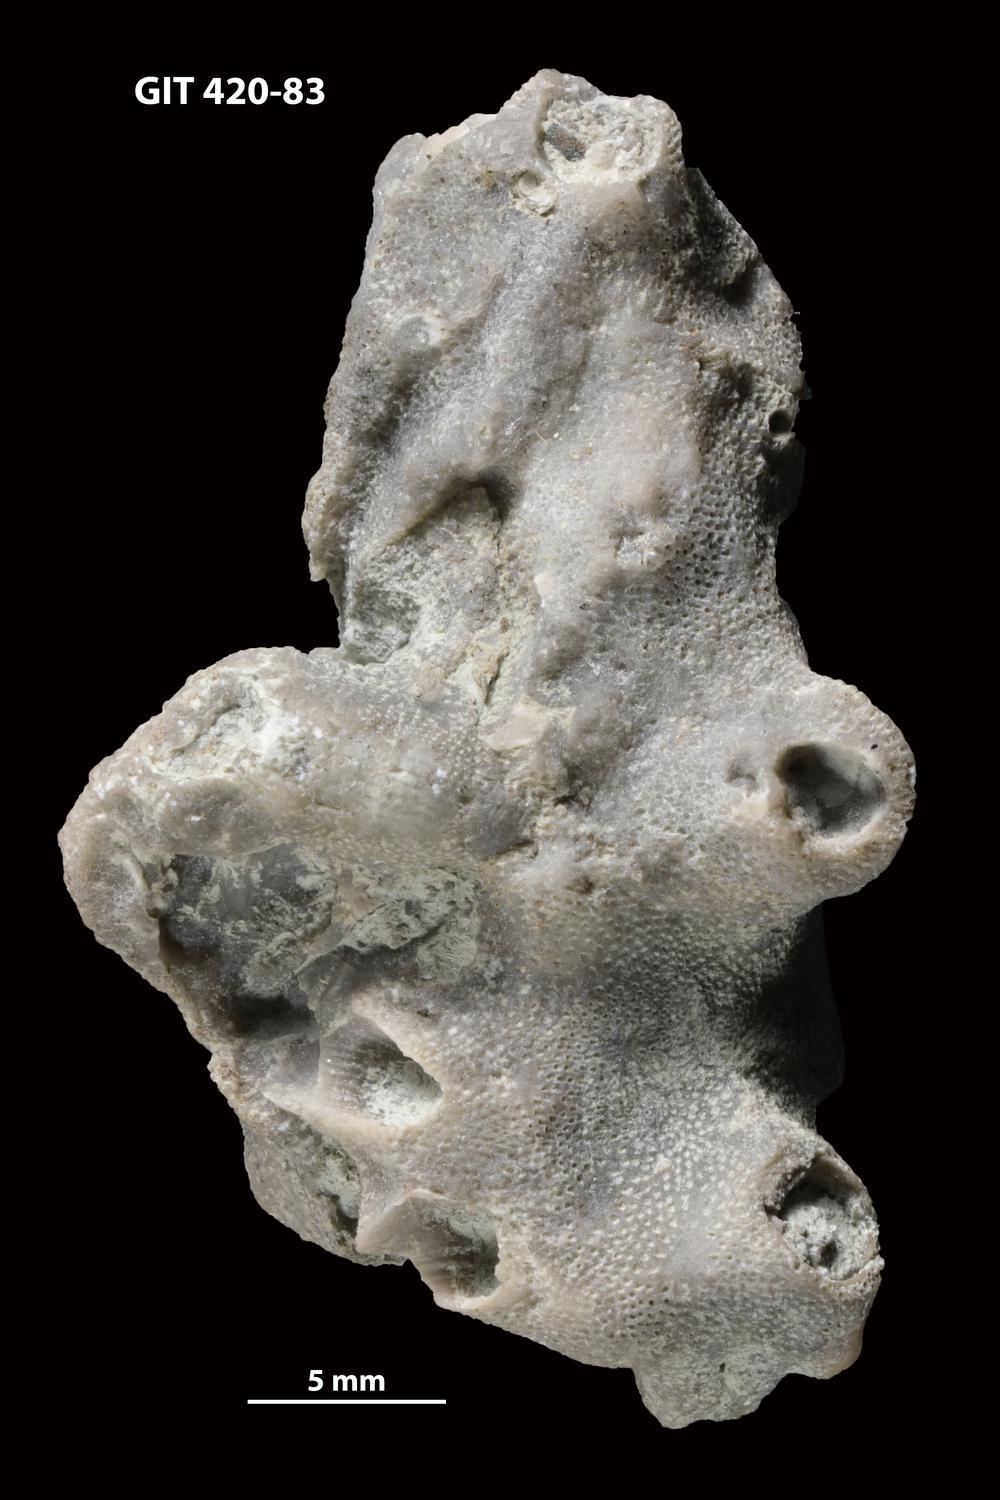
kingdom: Animalia
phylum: Bryozoa
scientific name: Bryozoa
